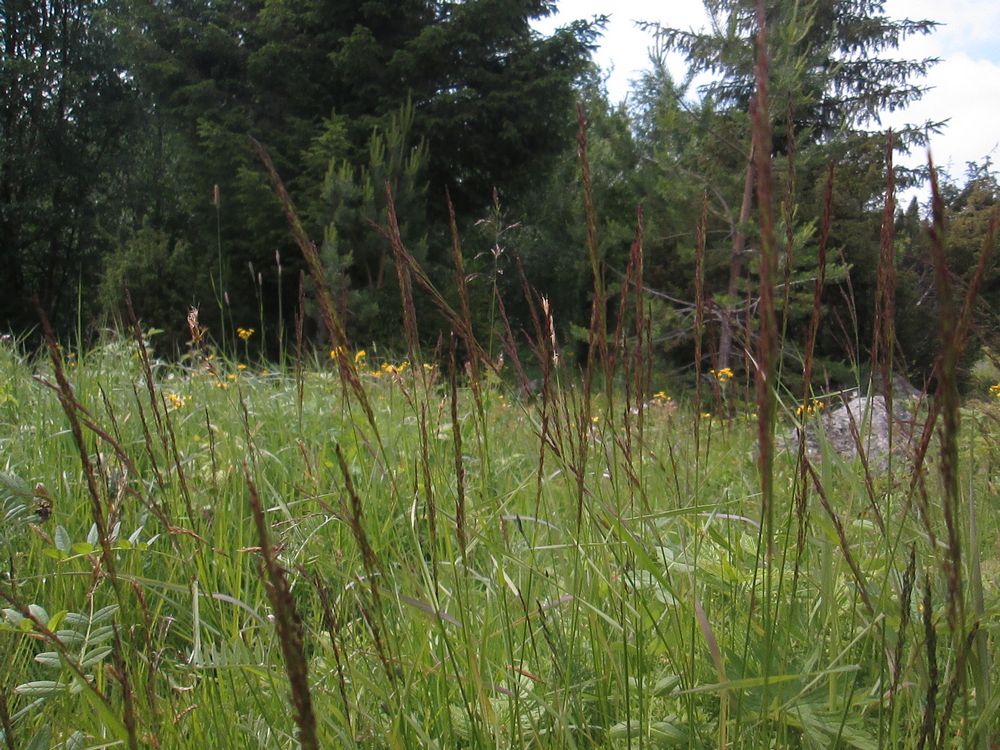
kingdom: Plantae
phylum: Tracheophyta
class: Liliopsida
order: Poales
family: Poaceae
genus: Agrostis
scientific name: Agrostis capillaris
